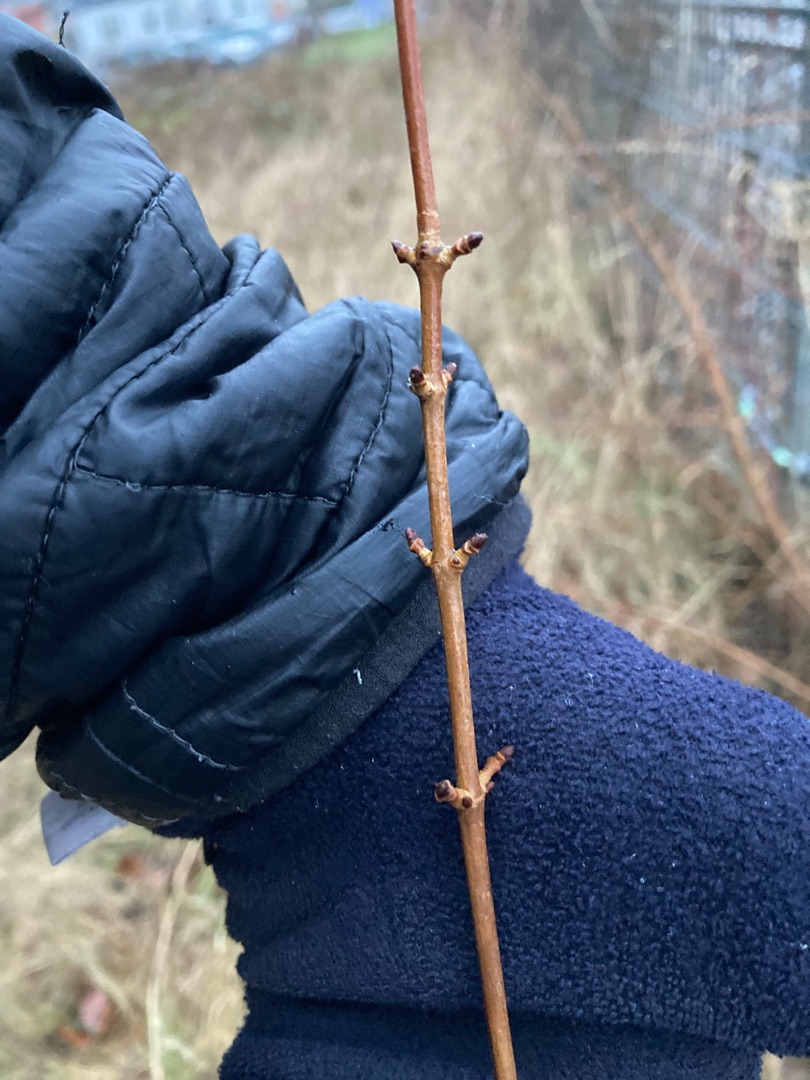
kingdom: Plantae
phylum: Tracheophyta
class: Magnoliopsida
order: Sapindales
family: Sapindaceae
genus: Acer
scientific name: Acer campestre
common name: Navr
